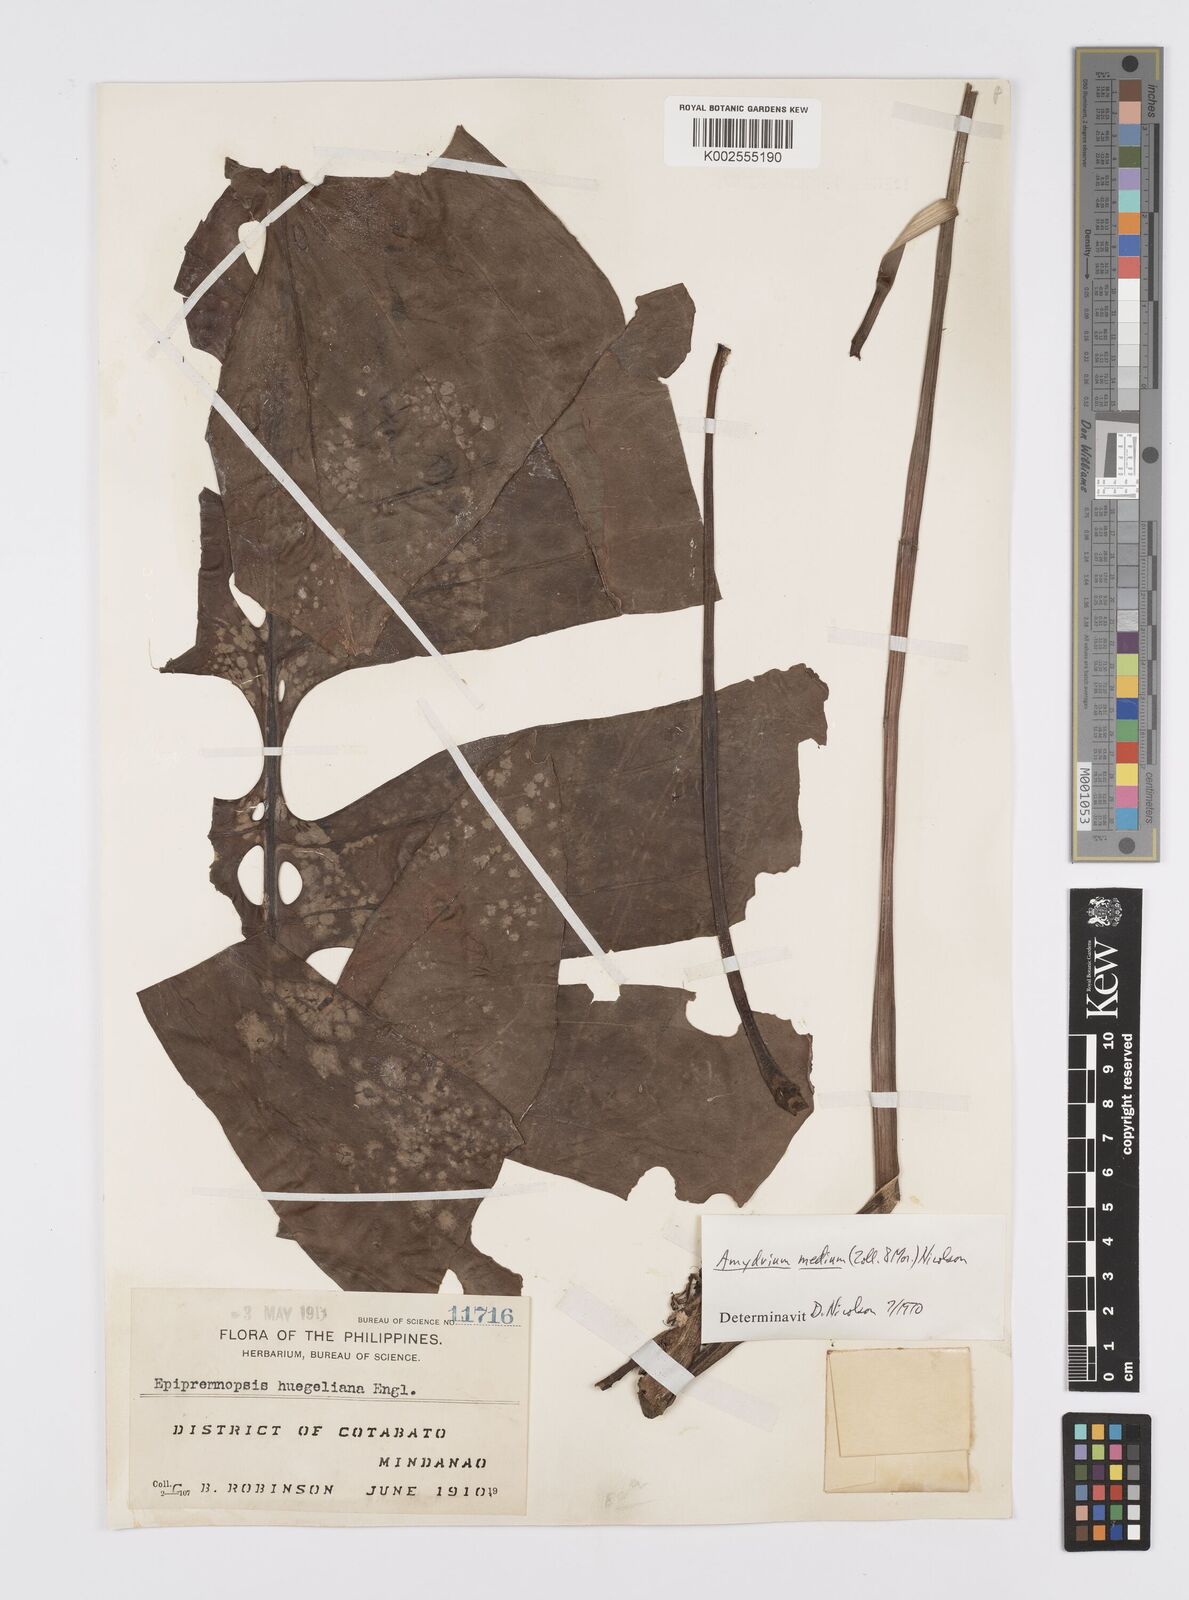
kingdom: Plantae
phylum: Tracheophyta
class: Liliopsida
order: Alismatales
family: Araceae
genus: Amydrium
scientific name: Amydrium medium
